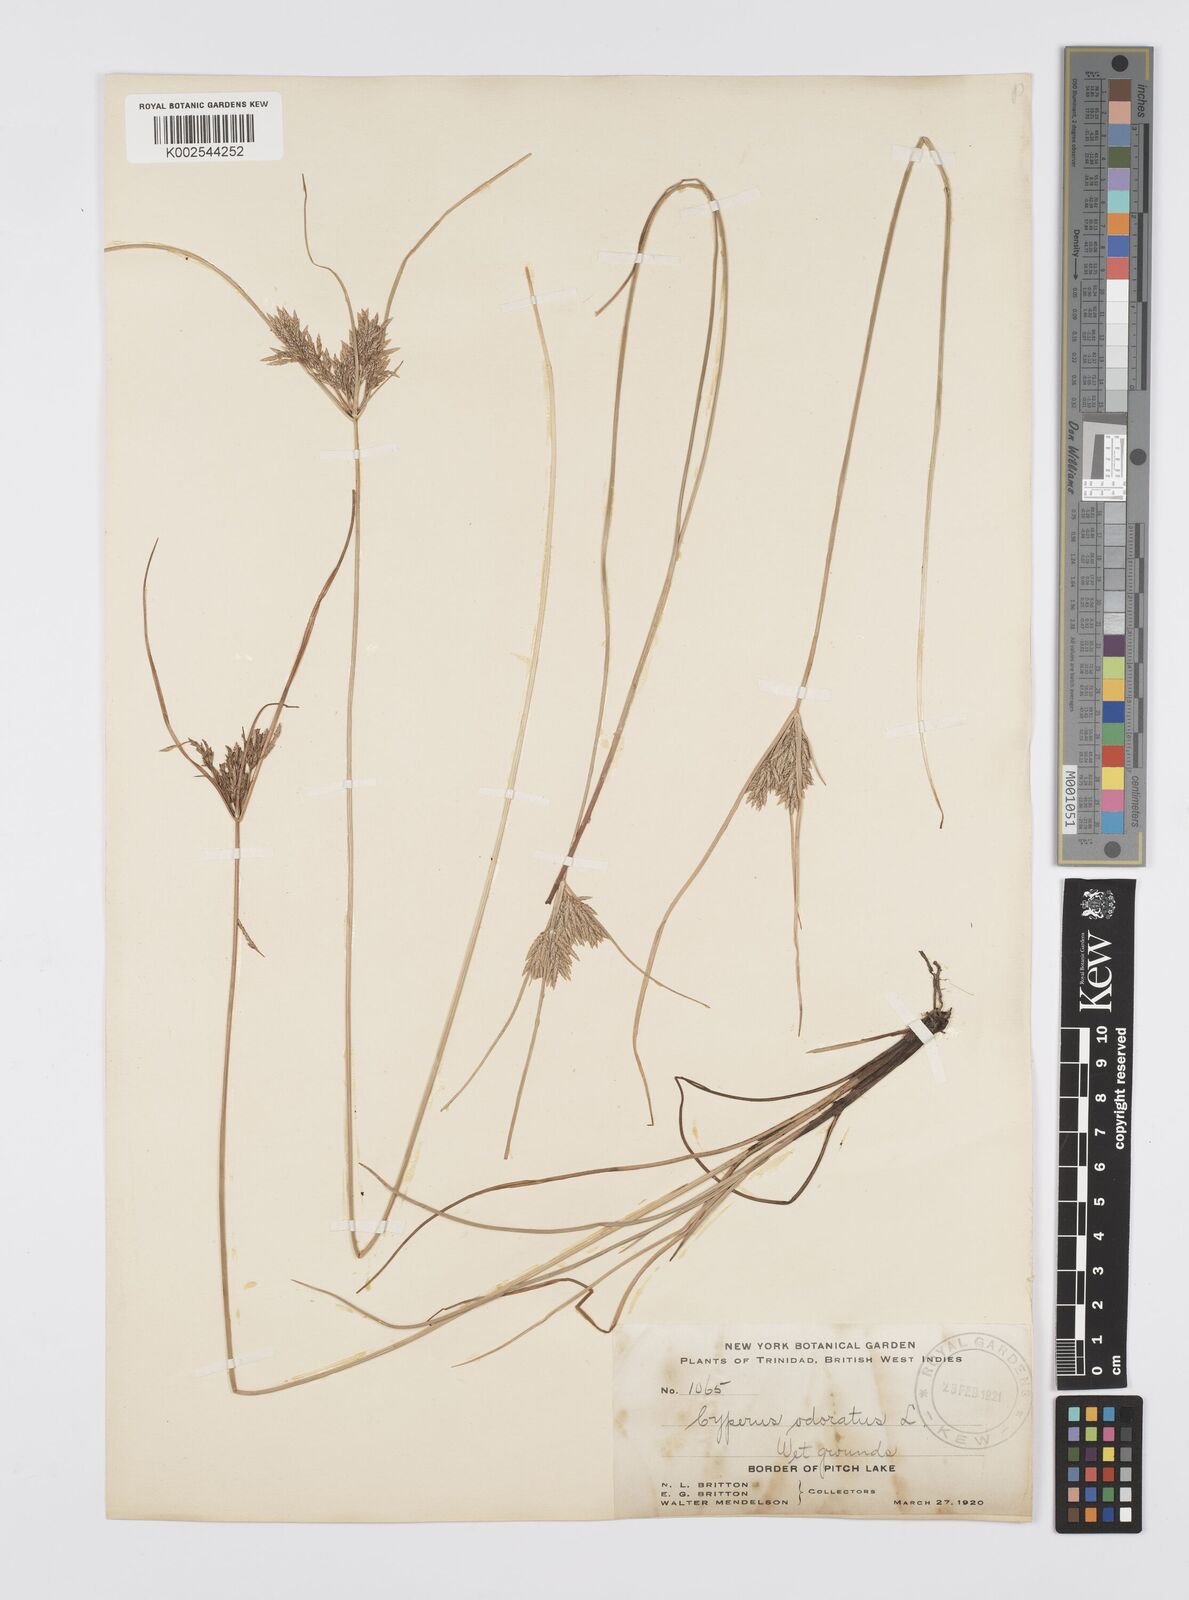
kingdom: Plantae
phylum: Tracheophyta
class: Liliopsida
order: Poales
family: Cyperaceae
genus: Cyperus
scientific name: Cyperus polystachyos
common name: Bunchy flat sedge
